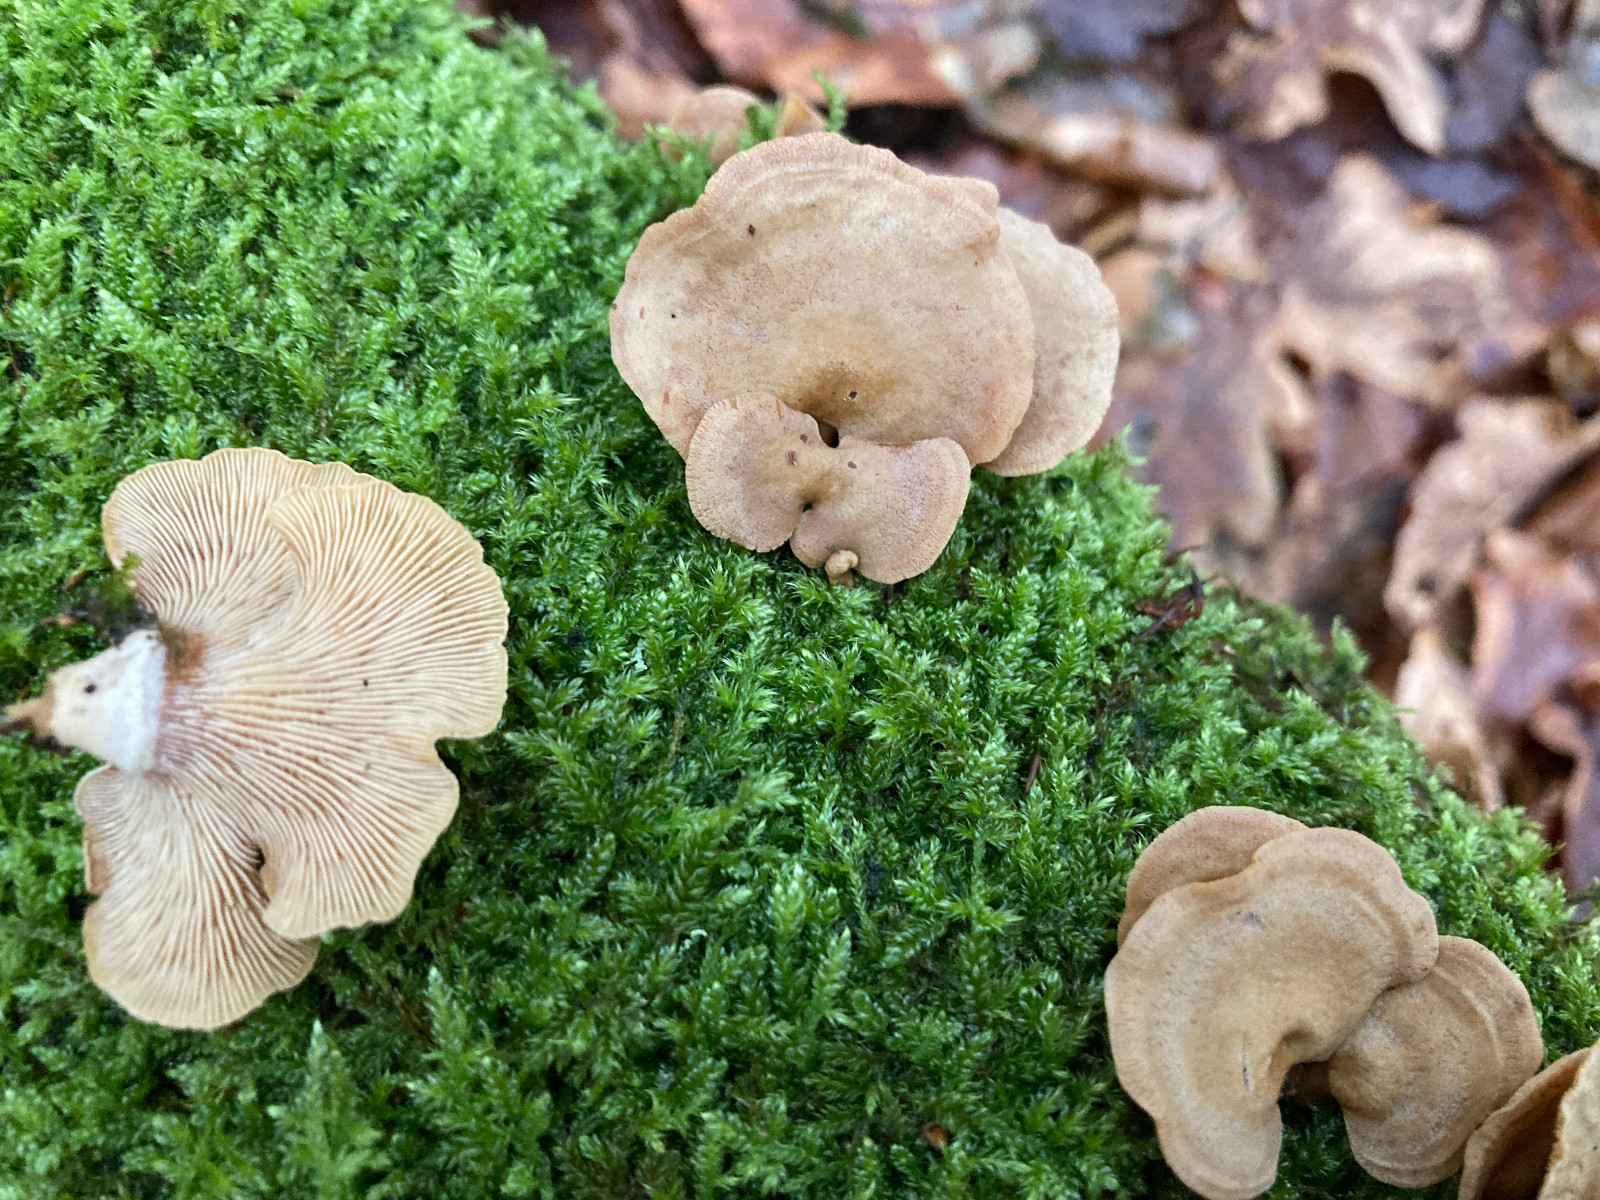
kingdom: Fungi
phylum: Basidiomycota
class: Agaricomycetes
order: Agaricales
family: Mycenaceae
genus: Panellus
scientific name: Panellus stipticus
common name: kliddet epaulethat
